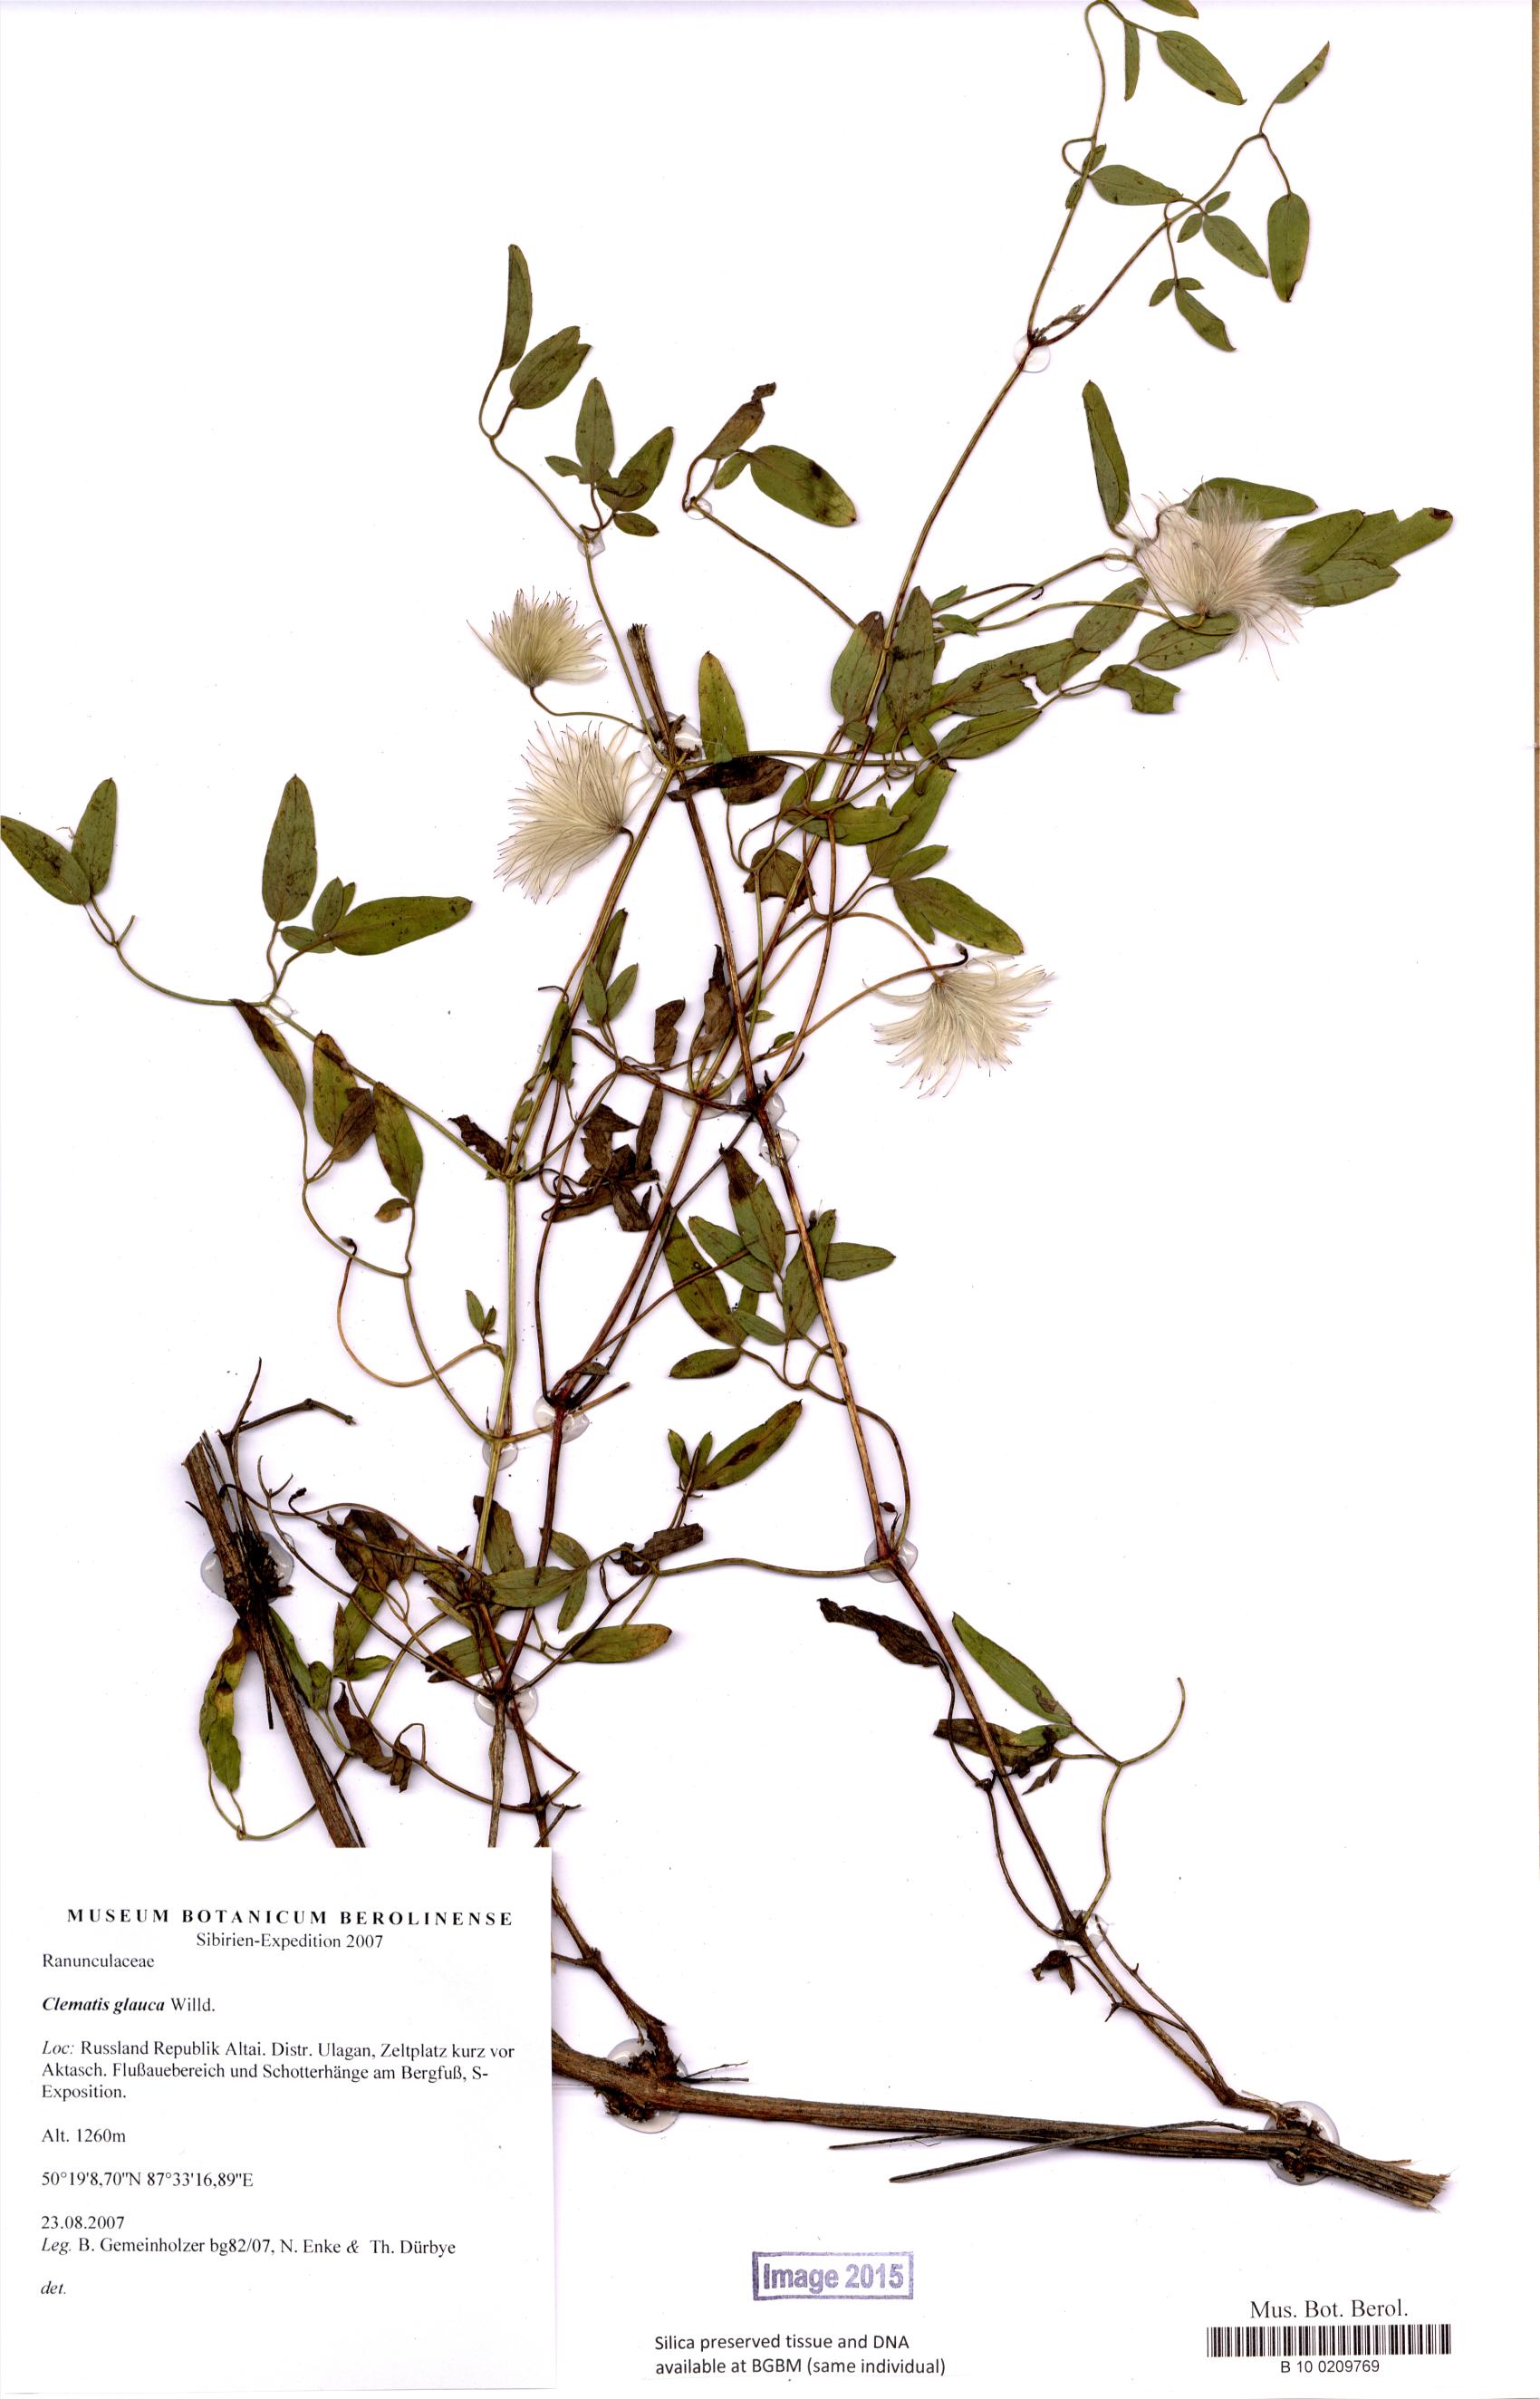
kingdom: Plantae
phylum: Tracheophyta
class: Magnoliopsida
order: Ranunculales
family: Ranunculaceae
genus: Clematis
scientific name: Clematis glauca
